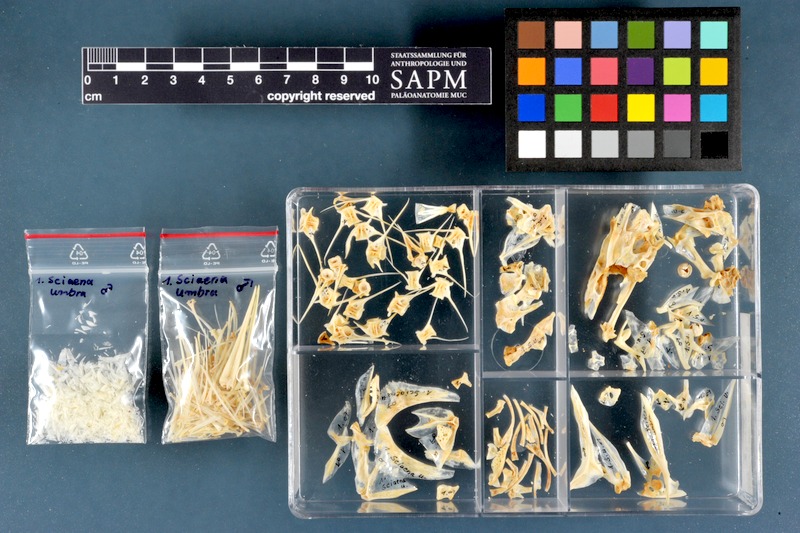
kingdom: Animalia
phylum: Chordata
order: Perciformes
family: Sciaenidae
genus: Sciaena
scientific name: Sciaena umbra
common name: Brown meagre
